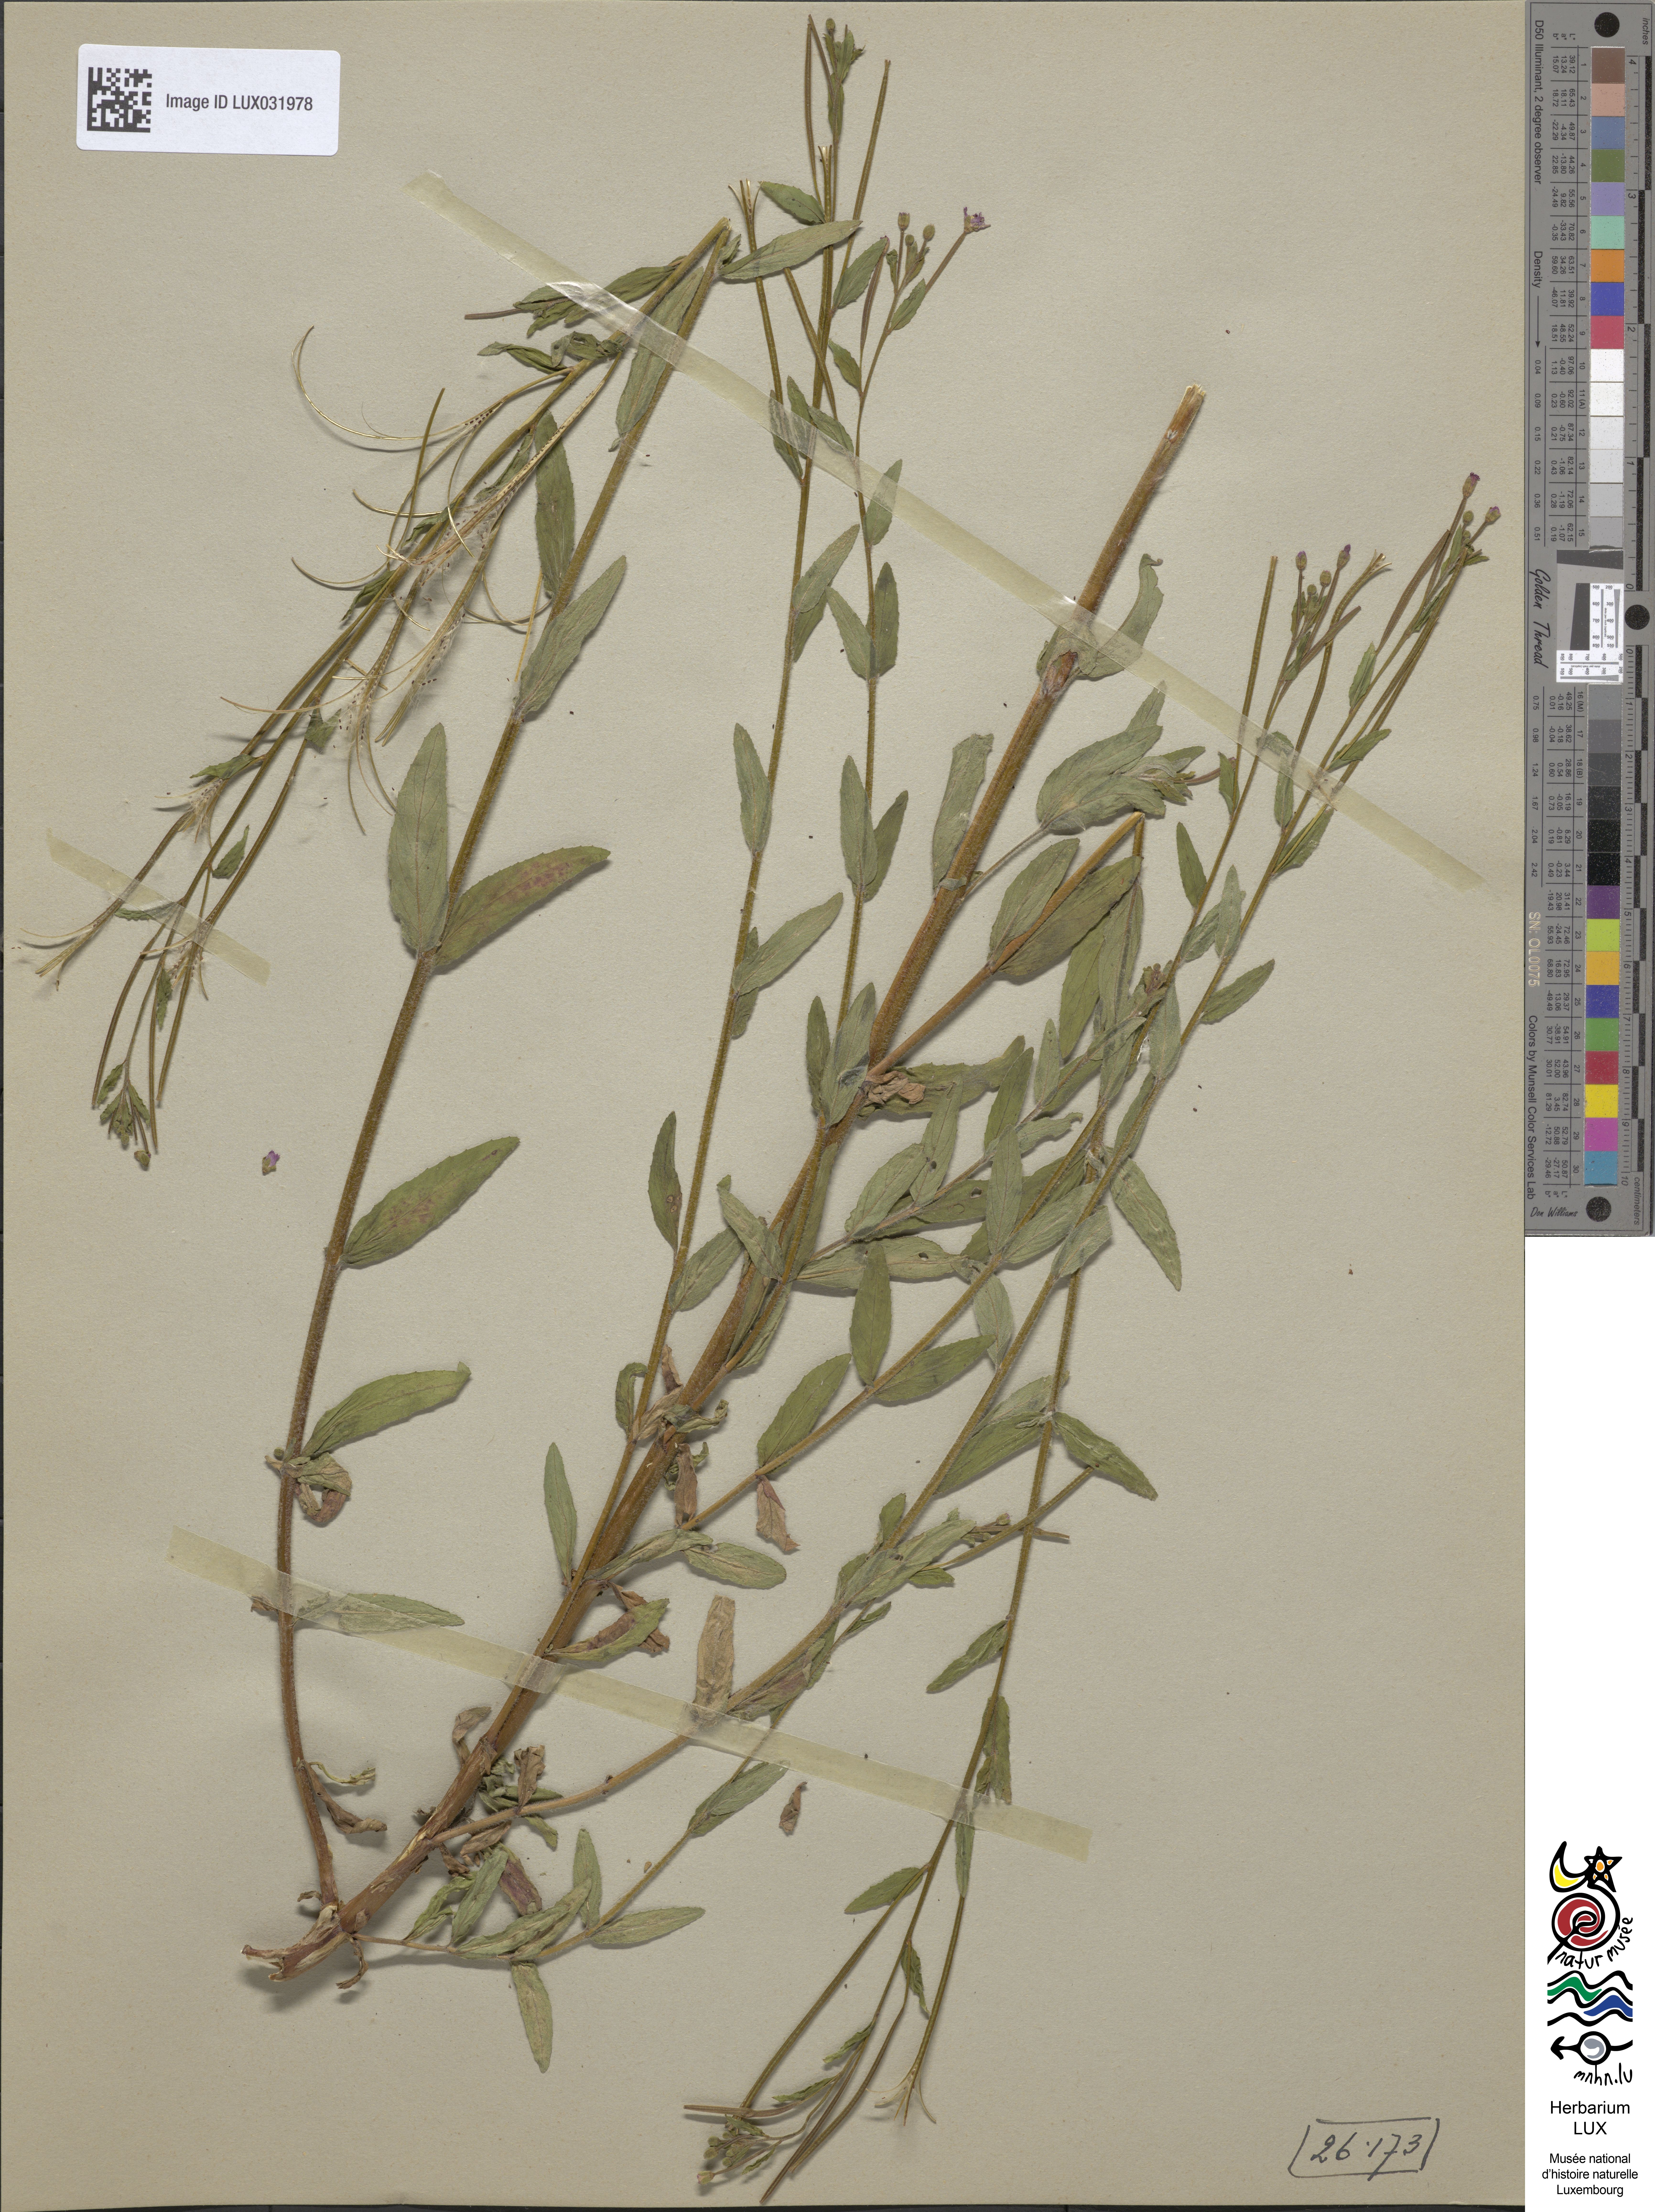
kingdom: Plantae
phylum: Tracheophyta
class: Magnoliopsida
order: Myrtales
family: Onagraceae
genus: Epilobium
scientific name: Epilobium parviflorum
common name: Hoary willowherb
